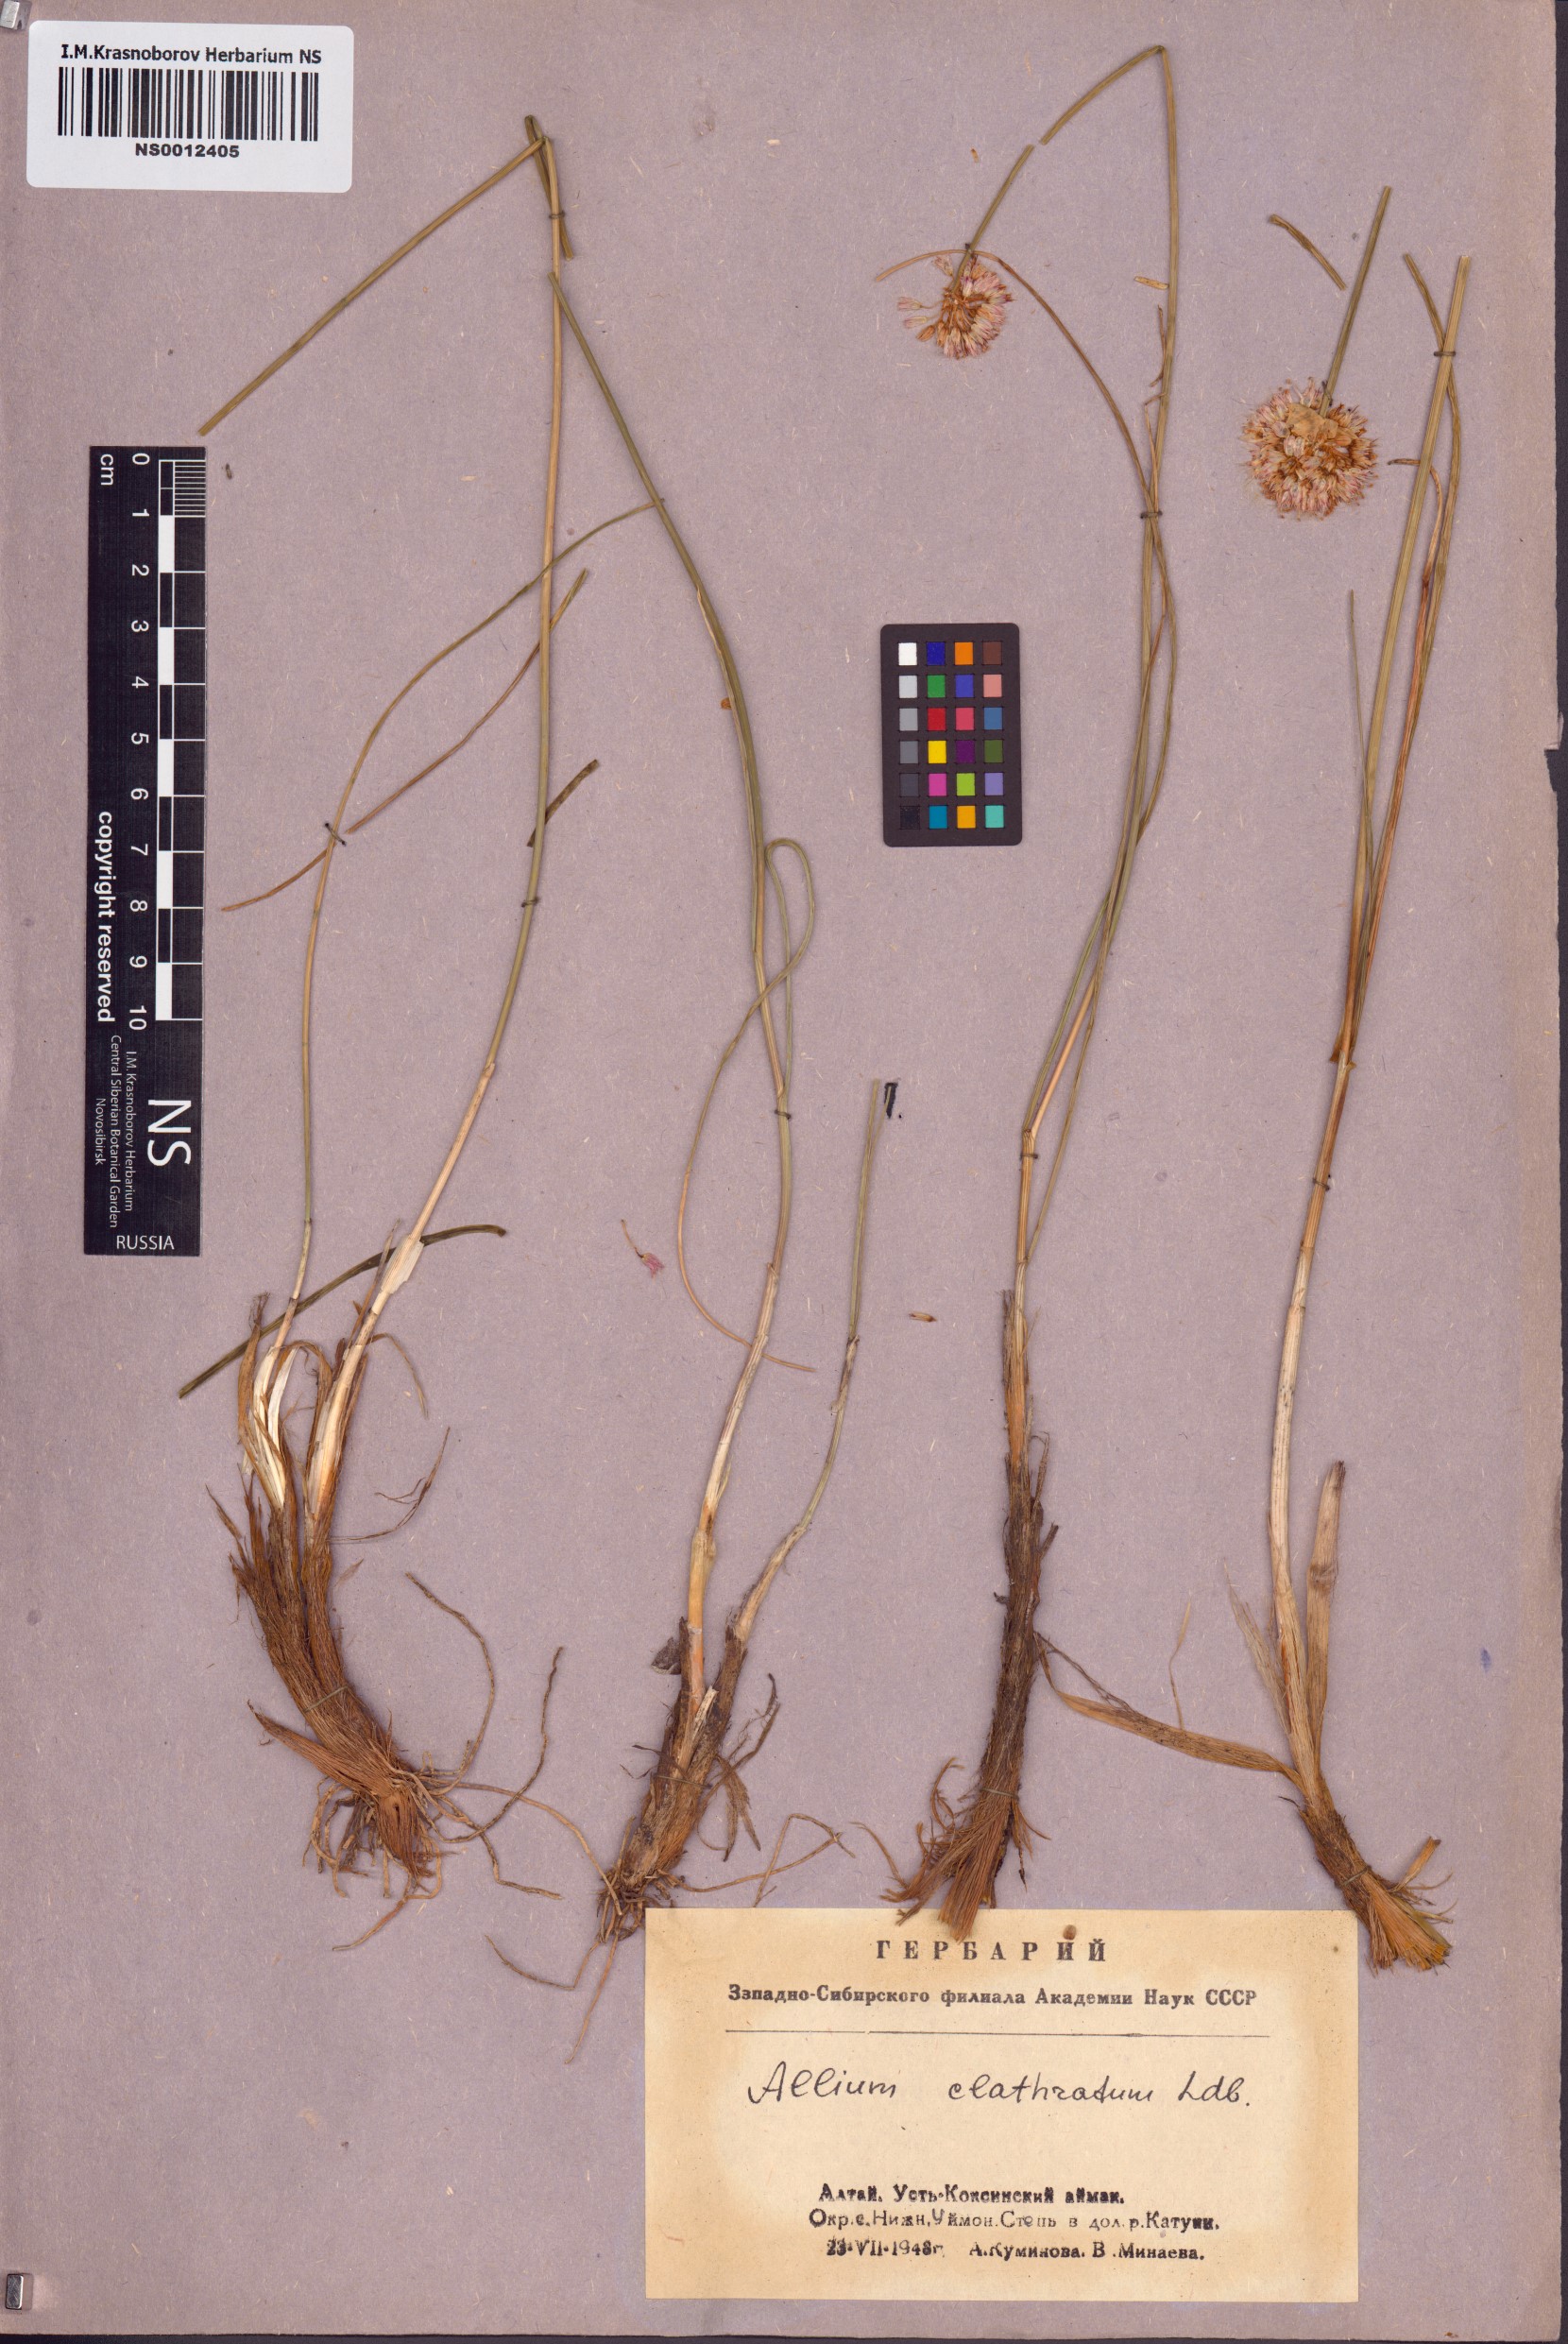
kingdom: Plantae
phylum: Tracheophyta
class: Liliopsida
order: Asparagales
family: Amaryllidaceae
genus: Allium
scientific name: Allium clathratum
